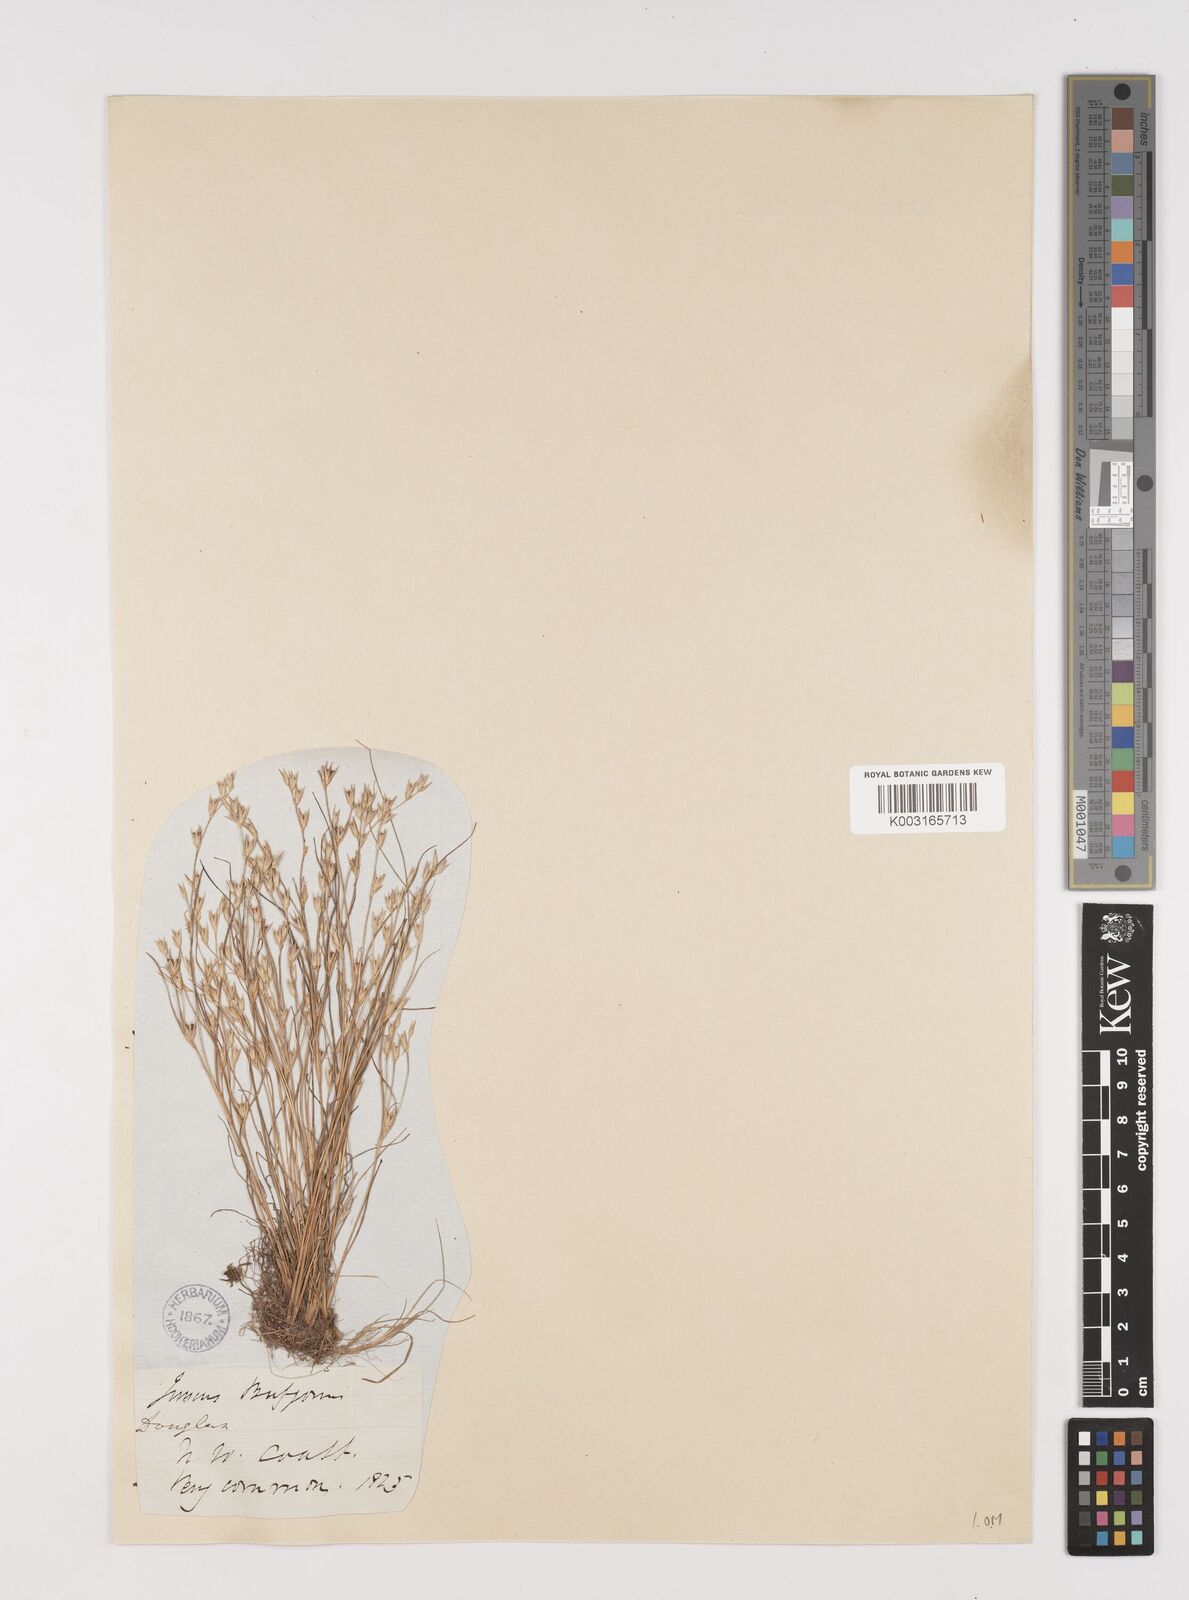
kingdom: Plantae
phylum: Tracheophyta
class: Liliopsida
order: Poales
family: Juncaceae
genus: Juncus
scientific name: Juncus bufonius
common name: Toad rush
